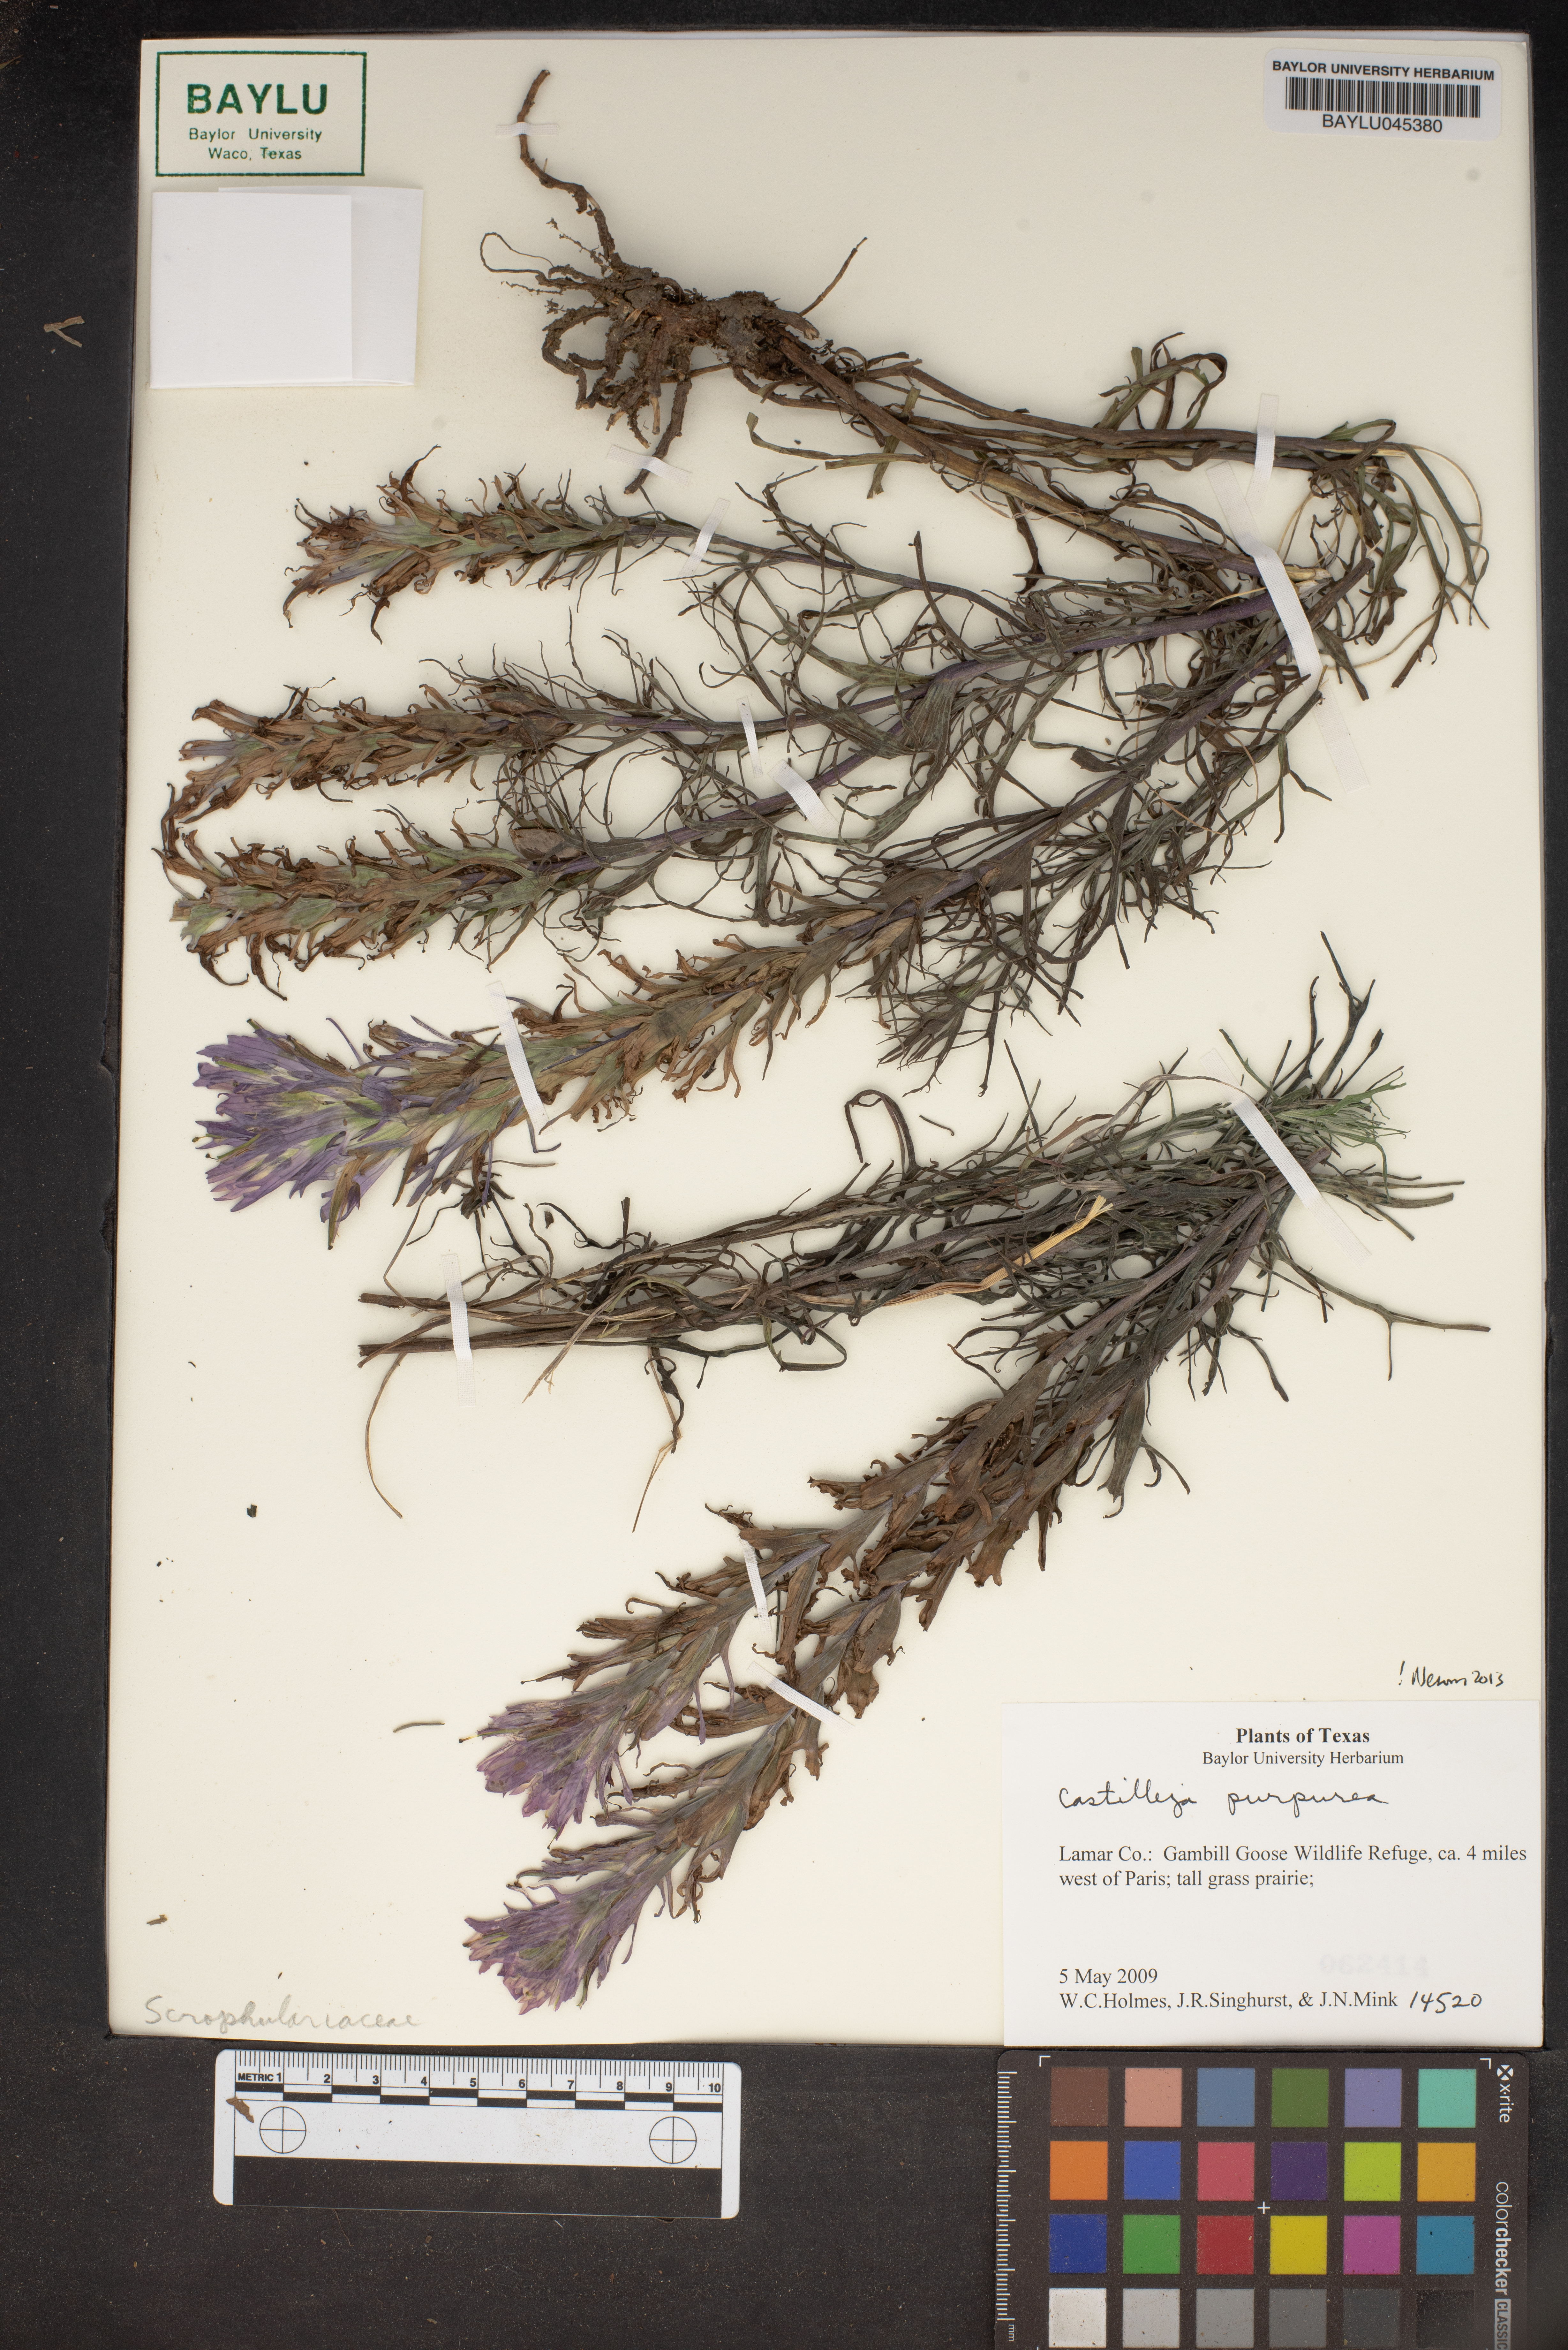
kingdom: Plantae
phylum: Tracheophyta
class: Magnoliopsida
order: Lamiales
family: Orobanchaceae
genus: Castilleja
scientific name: Castilleja purpurea
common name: Plains paintbrush
